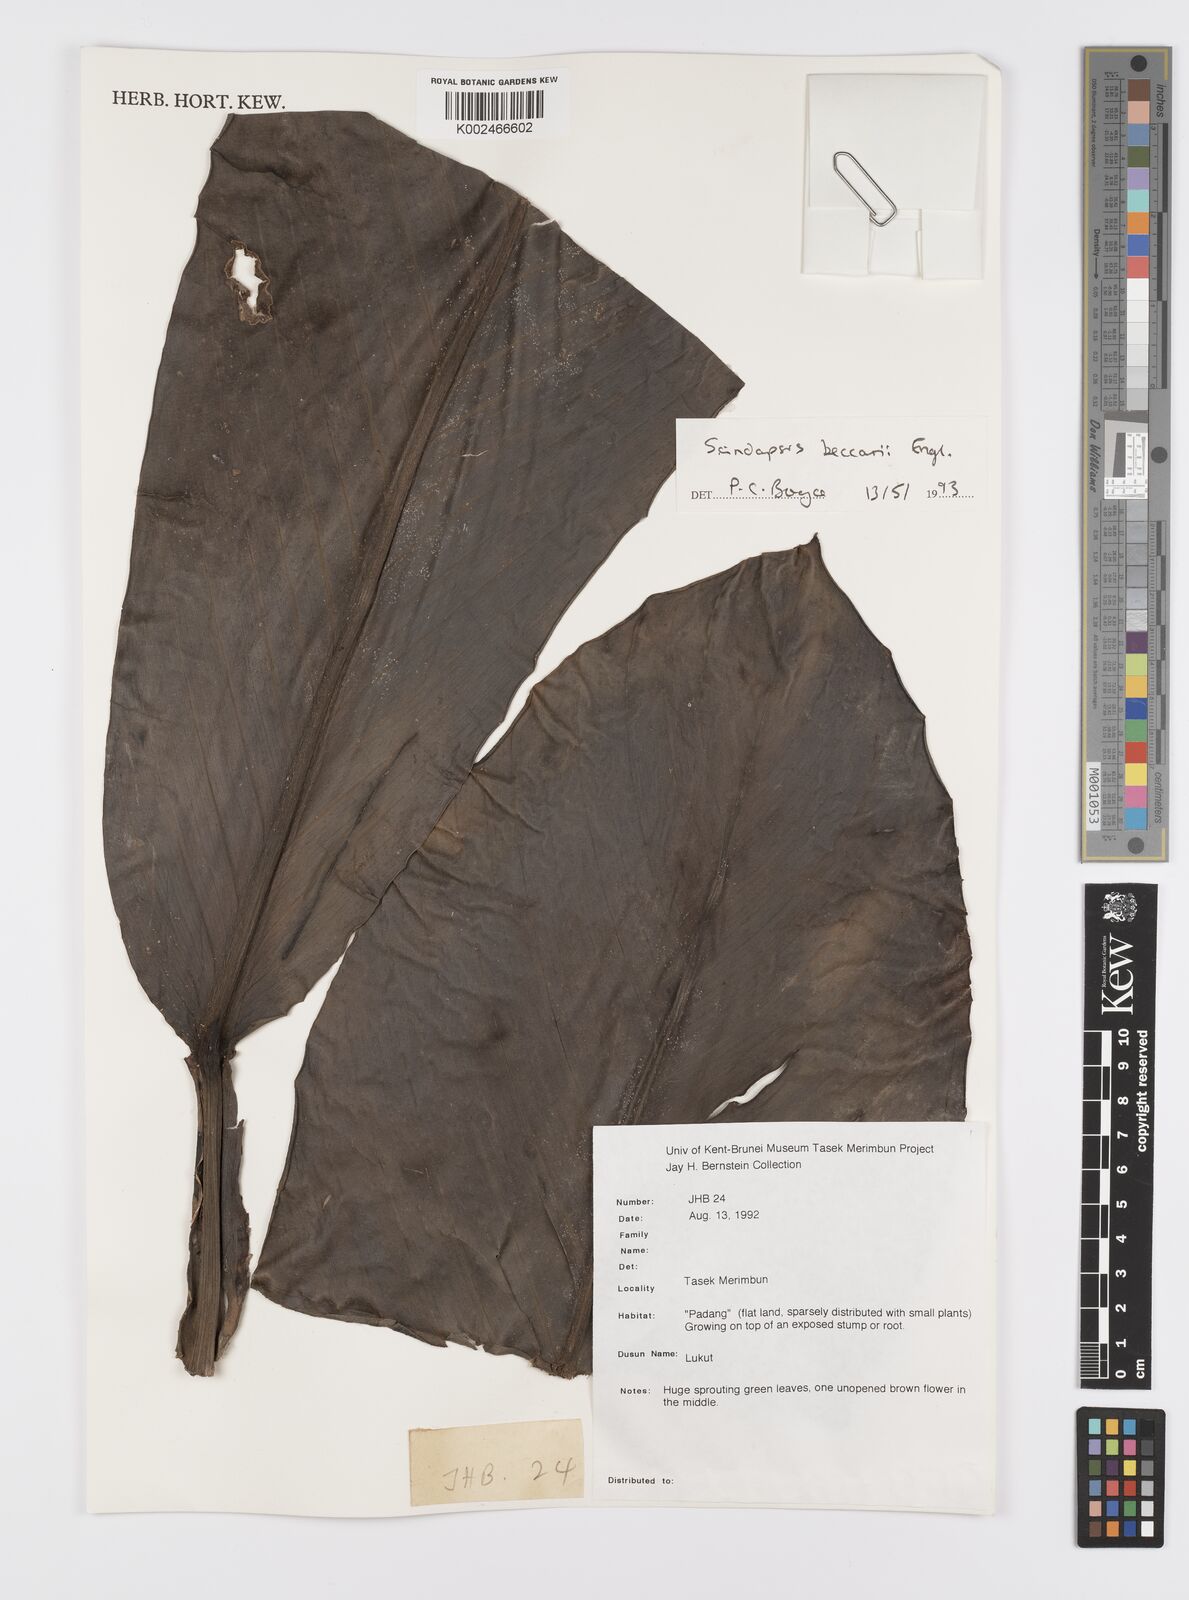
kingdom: Plantae
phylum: Tracheophyta
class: Liliopsida
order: Alismatales
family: Araceae
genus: Scindapsus
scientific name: Scindapsus beccarii
